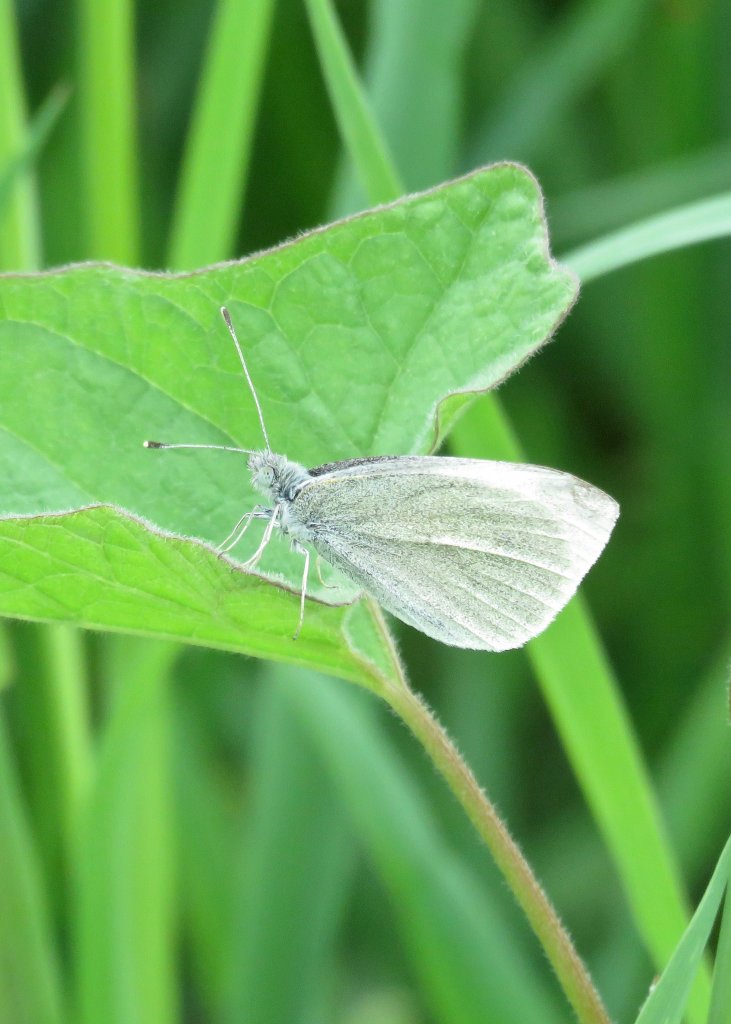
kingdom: Animalia
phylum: Arthropoda
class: Insecta
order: Lepidoptera
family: Pieridae
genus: Pieris
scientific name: Pieris rapae
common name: Cabbage White
